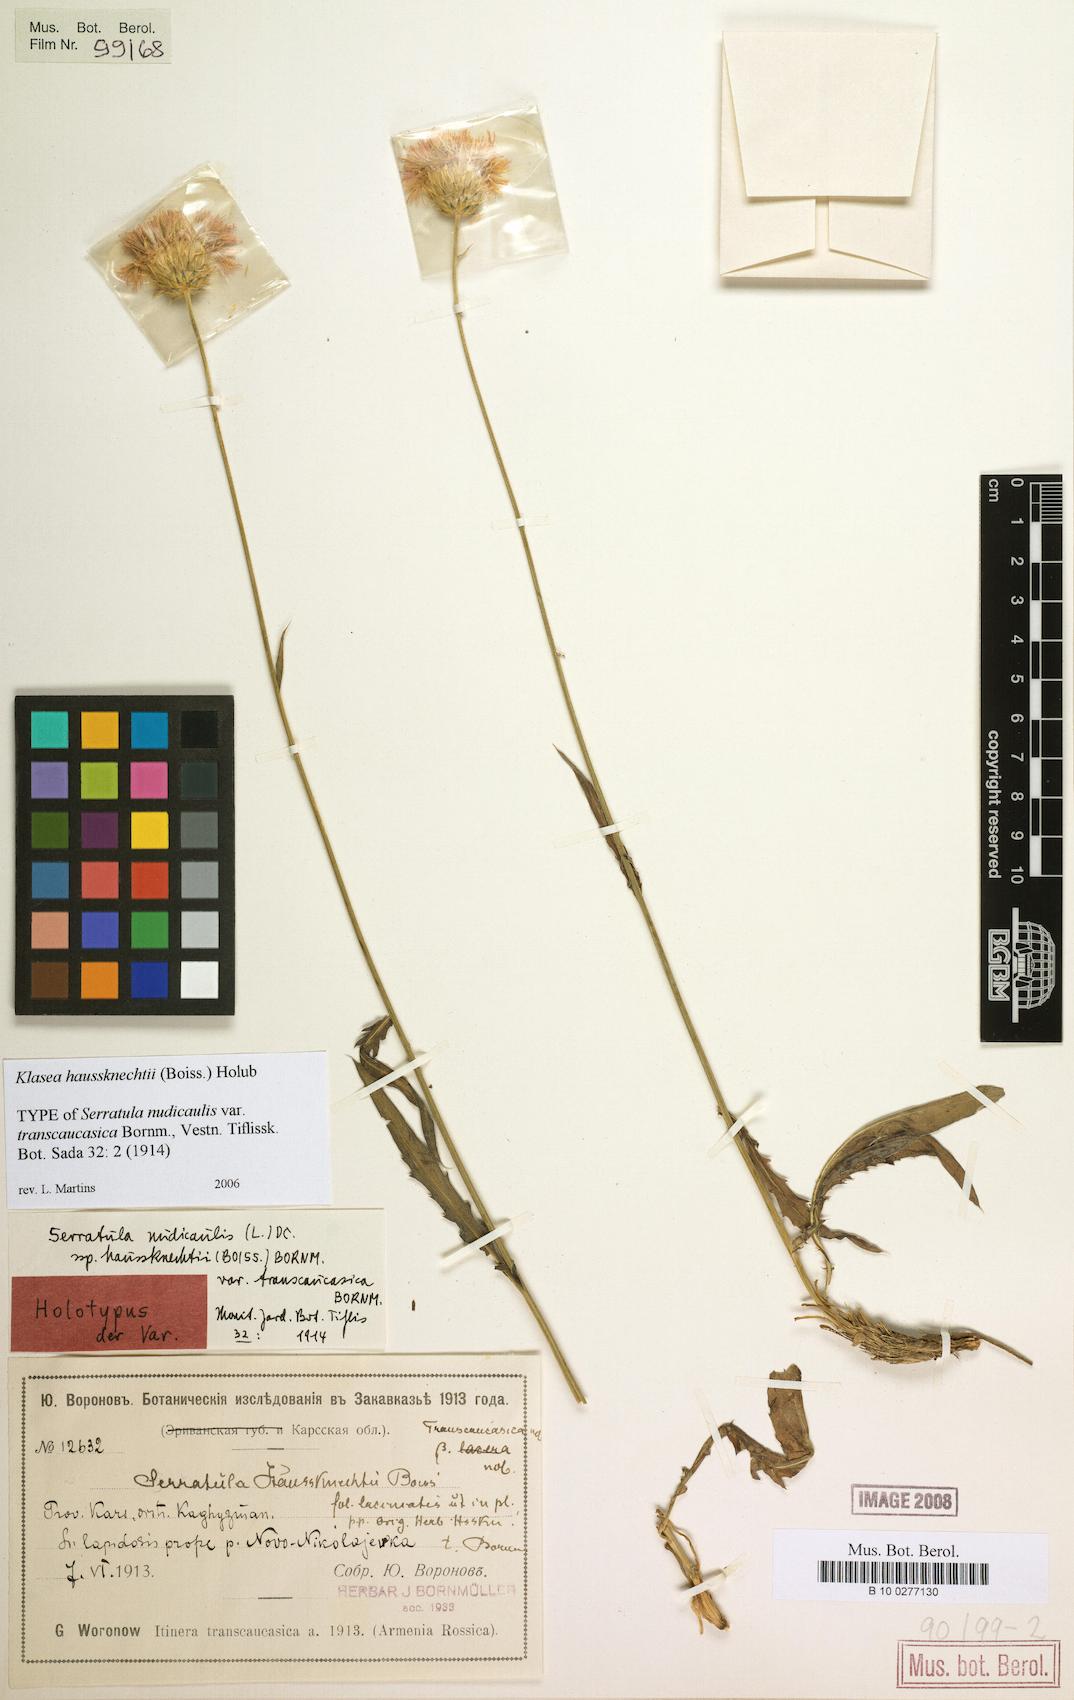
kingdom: Plantae
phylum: Tracheophyta
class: Magnoliopsida
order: Asterales
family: Asteraceae
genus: Klasea
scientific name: Klasea haussknechtii
